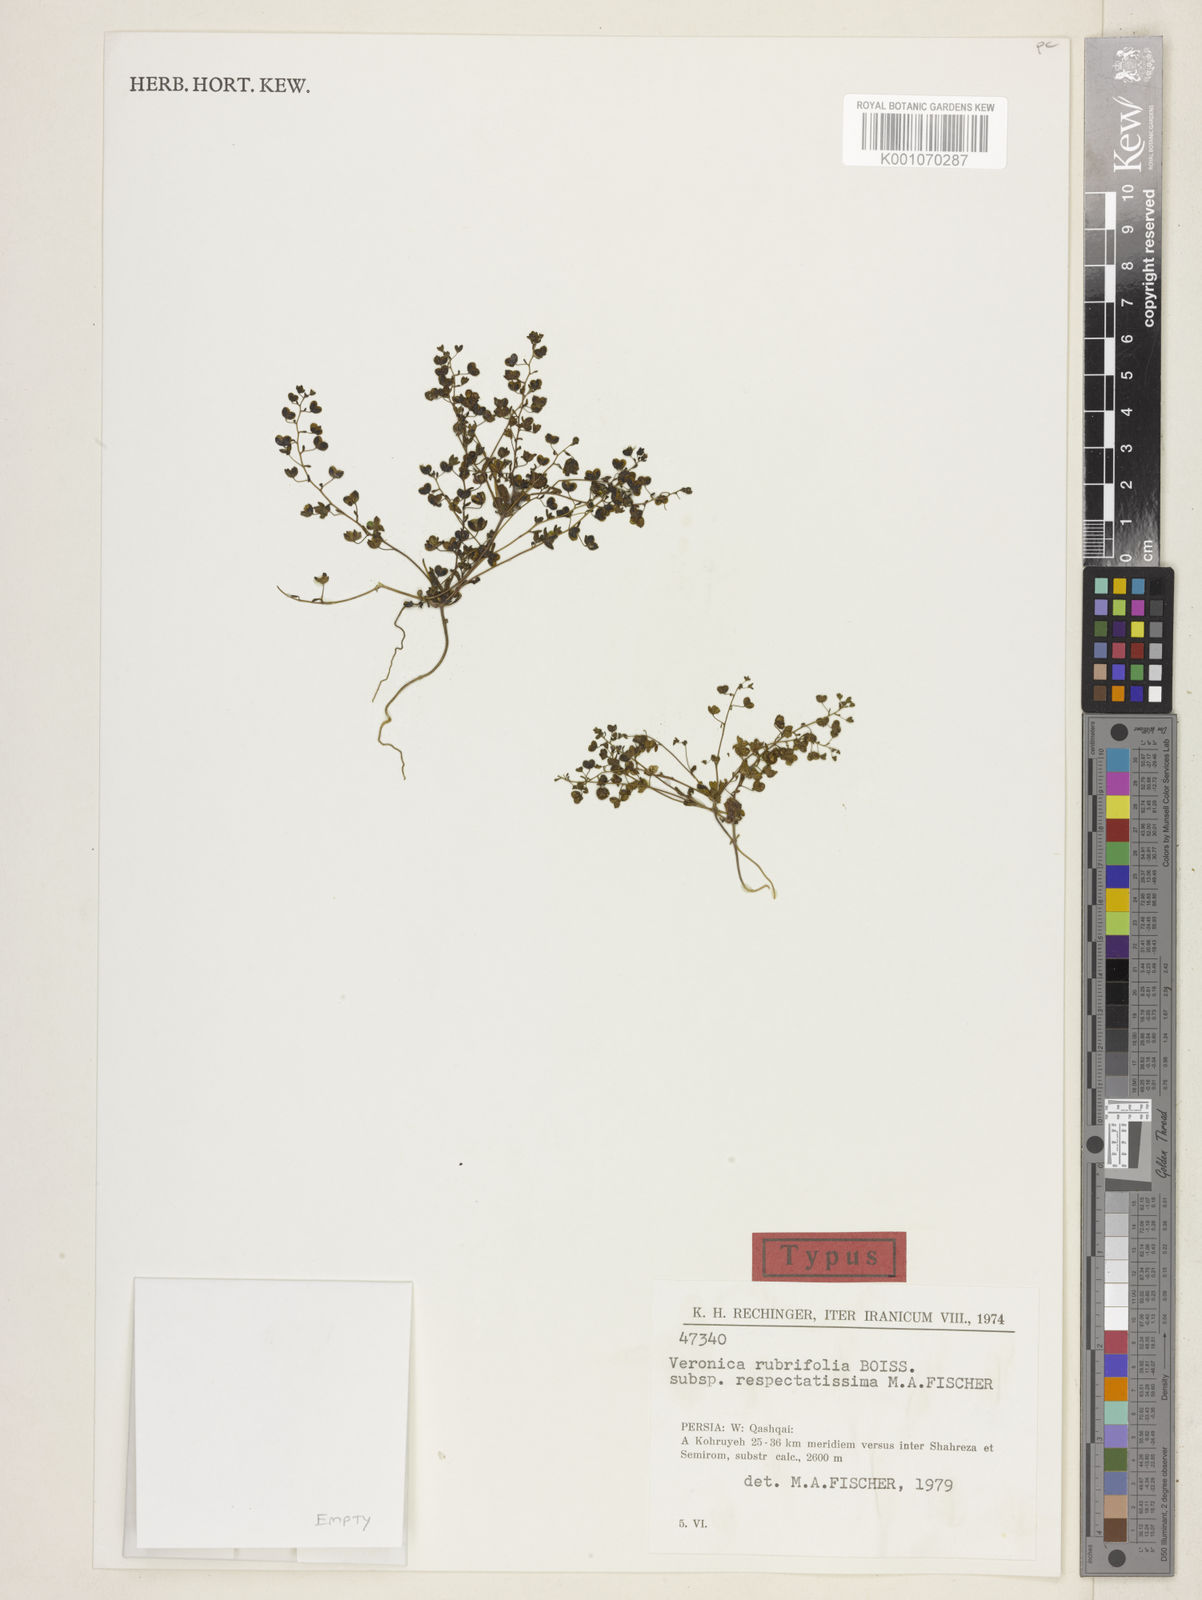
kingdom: Plantae
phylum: Tracheophyta
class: Magnoliopsida
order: Lamiales
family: Plantaginaceae
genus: Veronica
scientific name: Veronica rubrifolia
